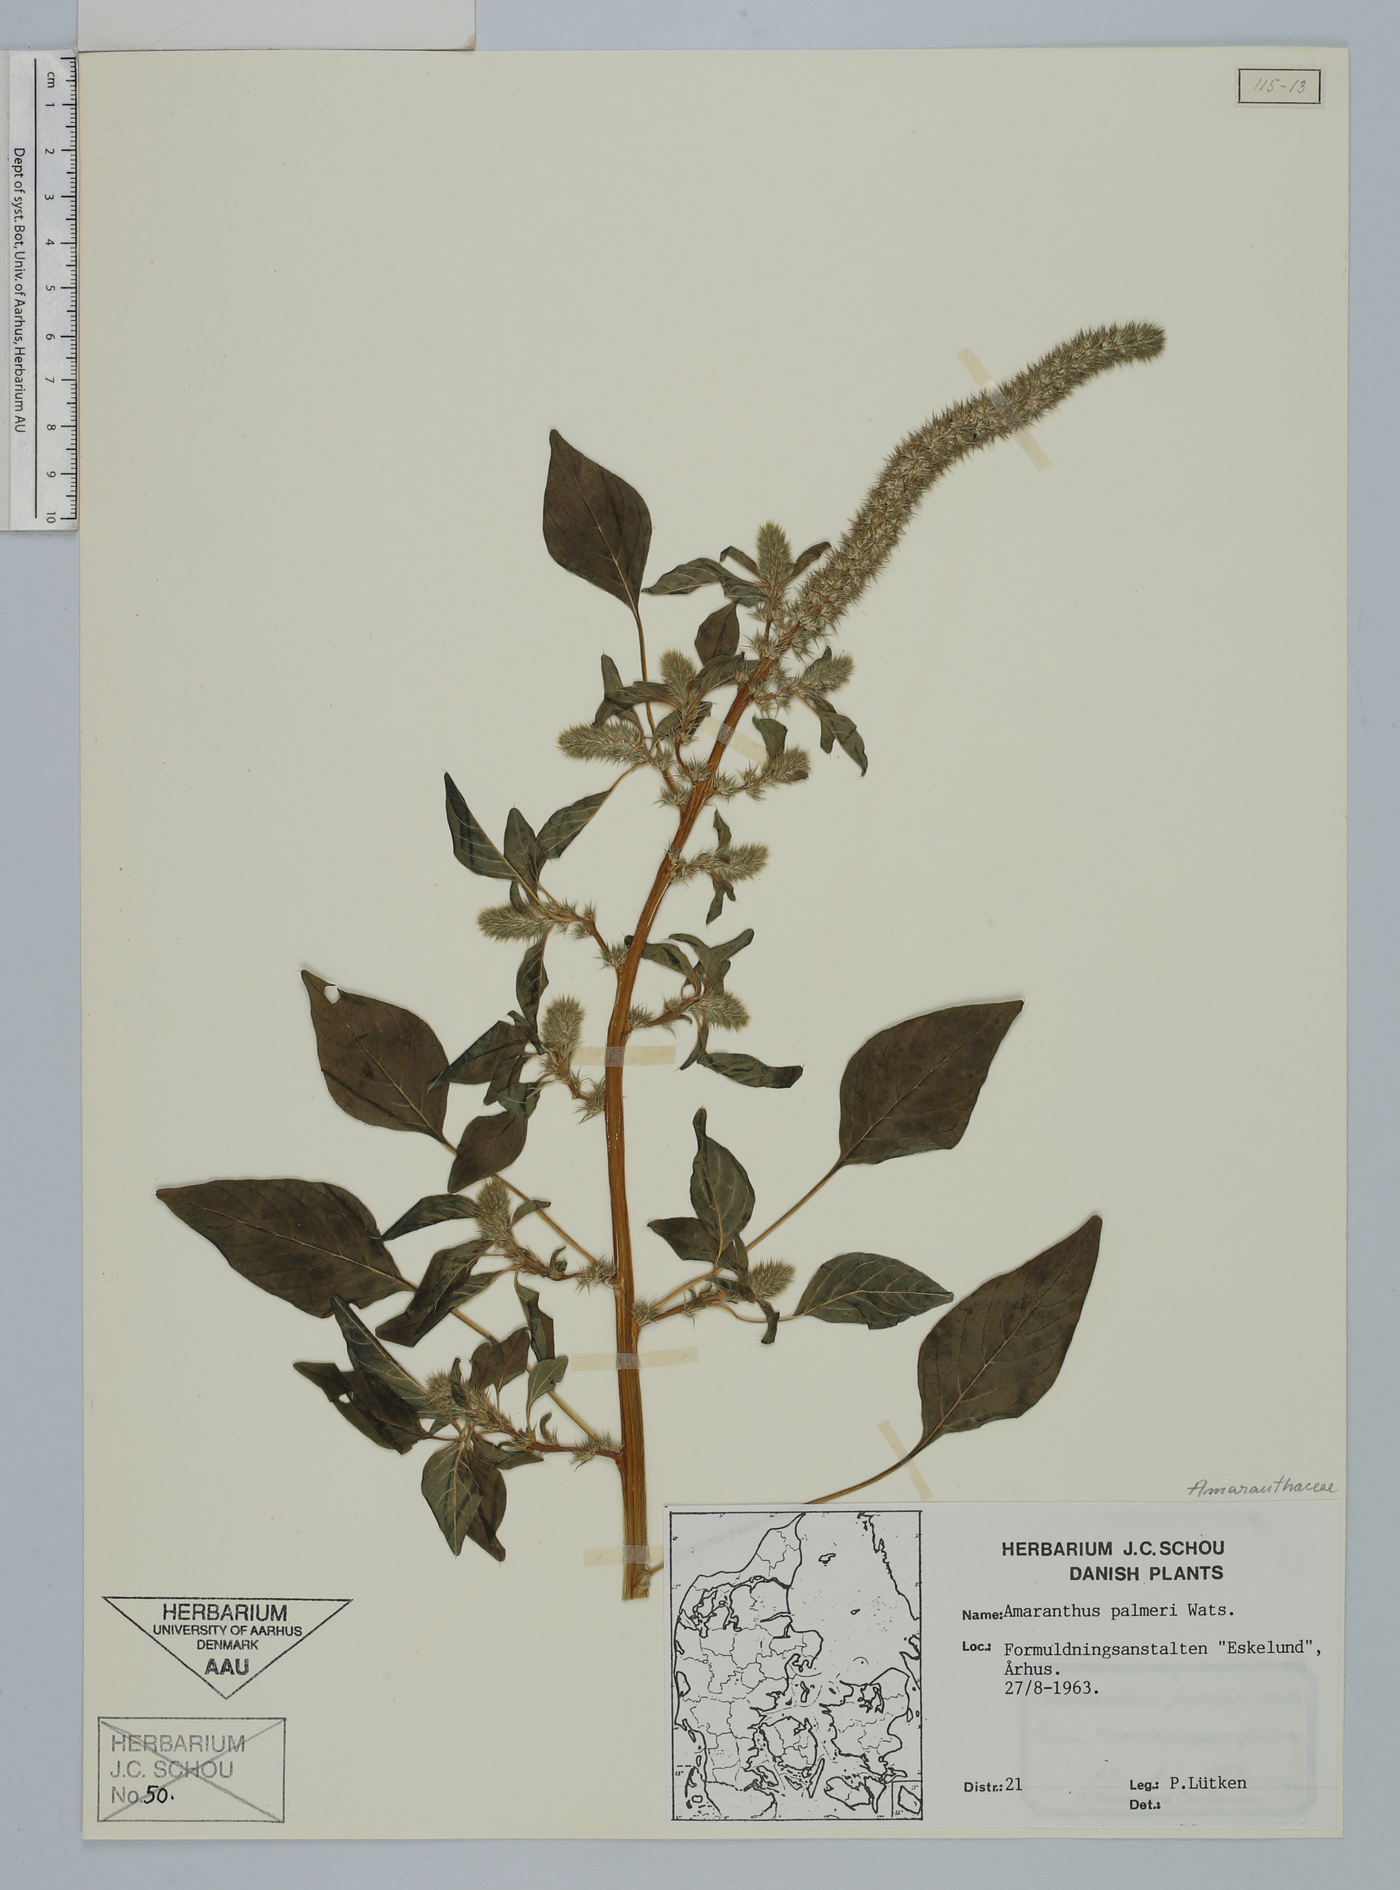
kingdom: Plantae
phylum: Tracheophyta
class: Magnoliopsida
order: Caryophyllales
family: Amaranthaceae
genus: Amaranthus
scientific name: Amaranthus palmeri
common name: Dioecious amaranth
